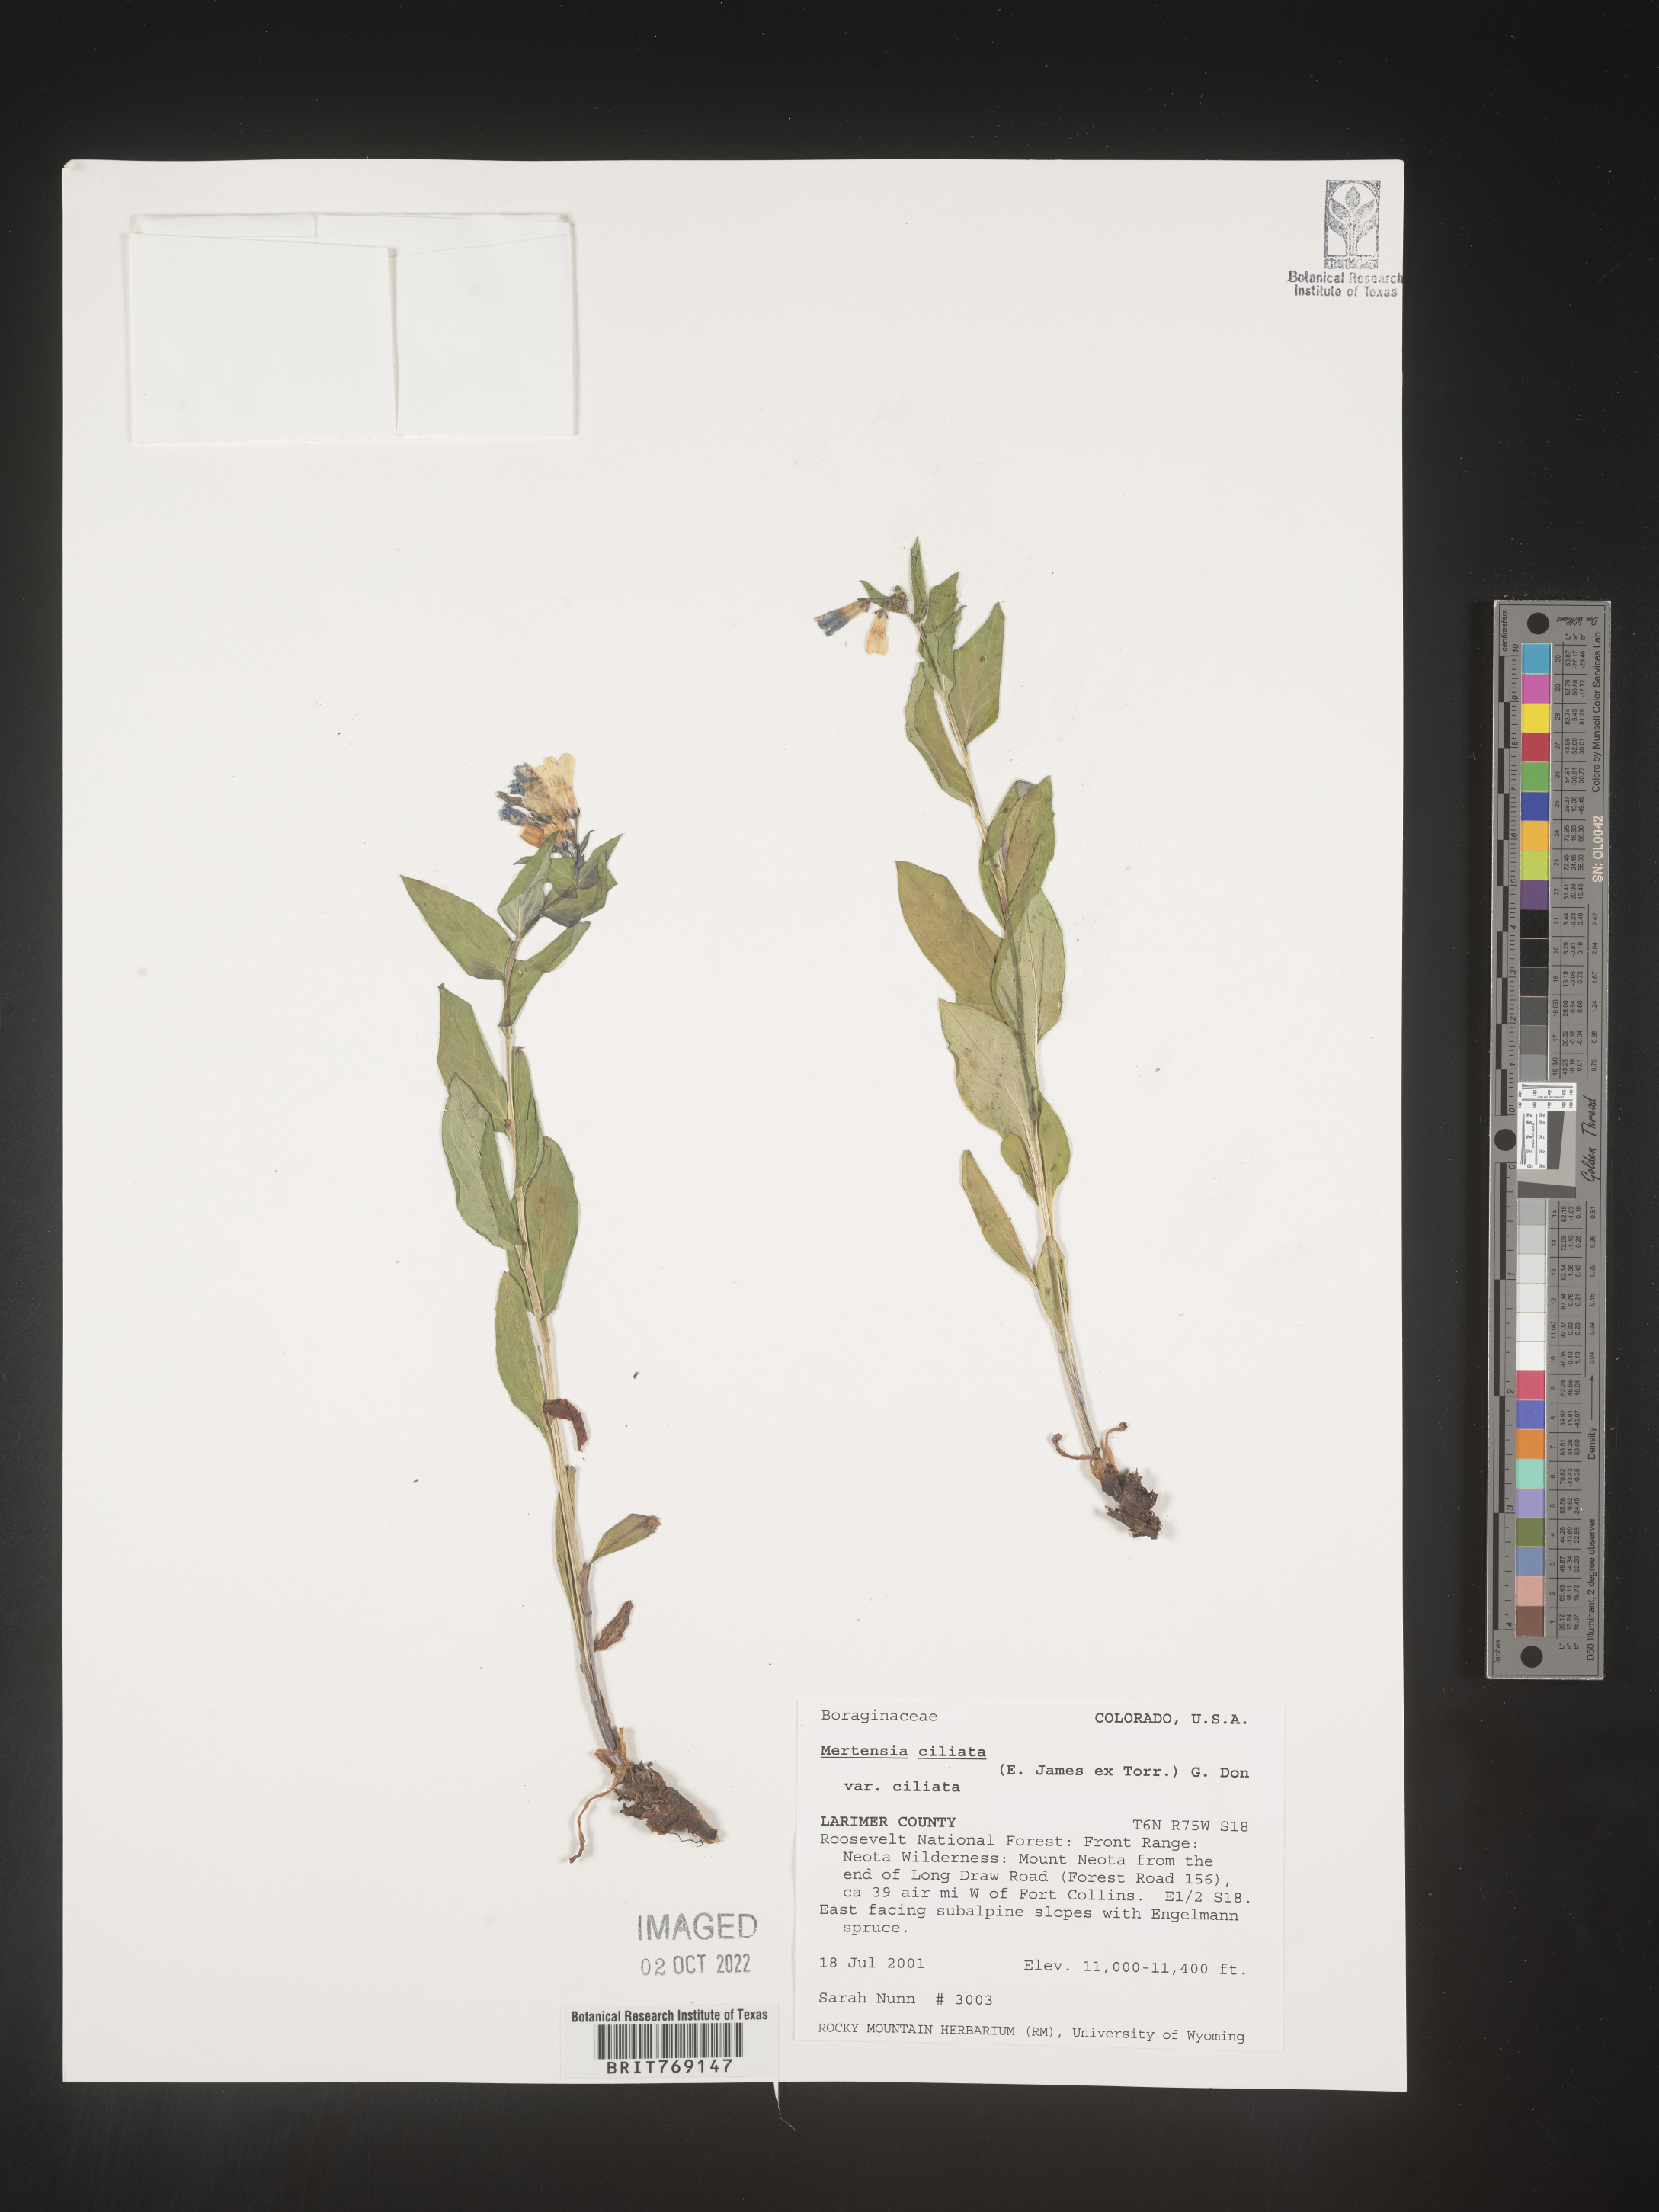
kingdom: Plantae
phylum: Tracheophyta
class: Magnoliopsida
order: Boraginales
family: Boraginaceae
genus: Mertensia
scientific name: Mertensia
